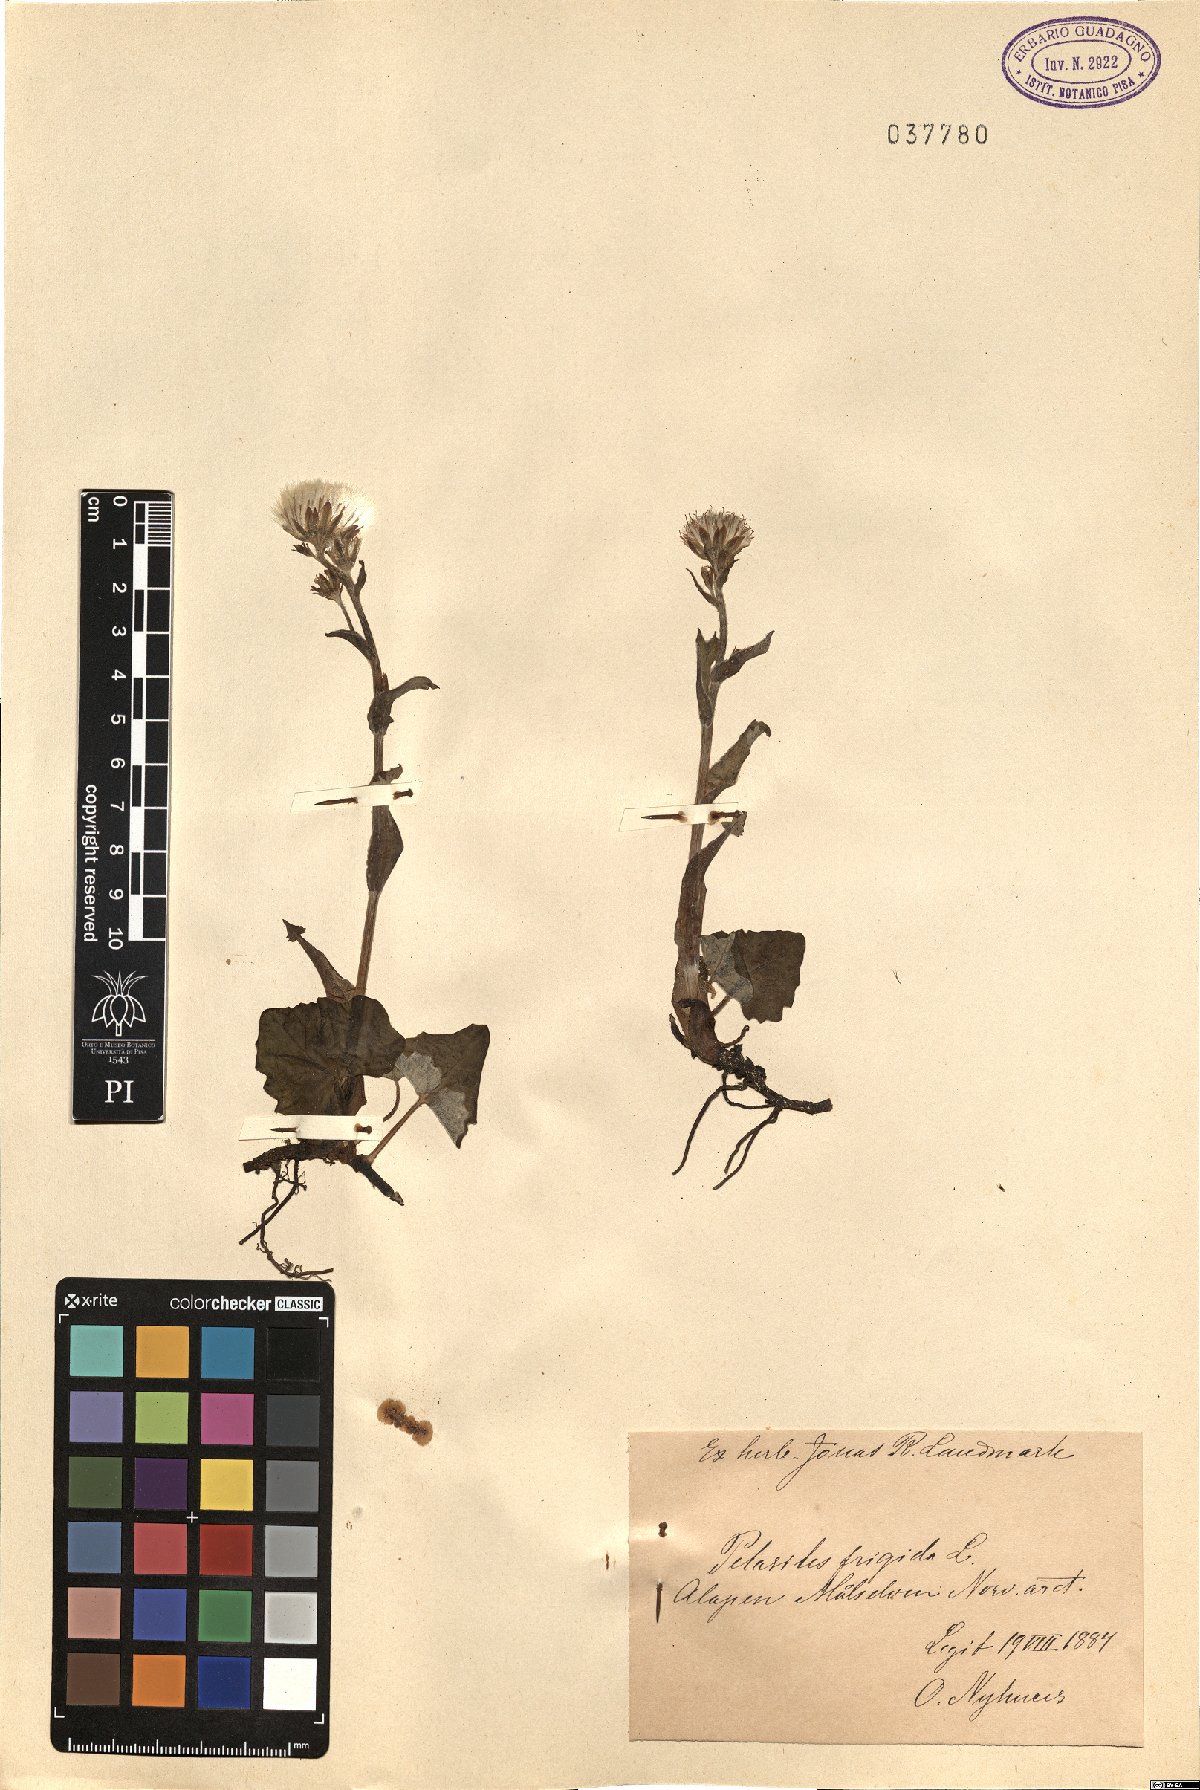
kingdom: Plantae
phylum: Tracheophyta
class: Magnoliopsida
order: Asterales
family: Asteraceae
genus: Petasites
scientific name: Petasites frigidus
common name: Arctic butterbur
